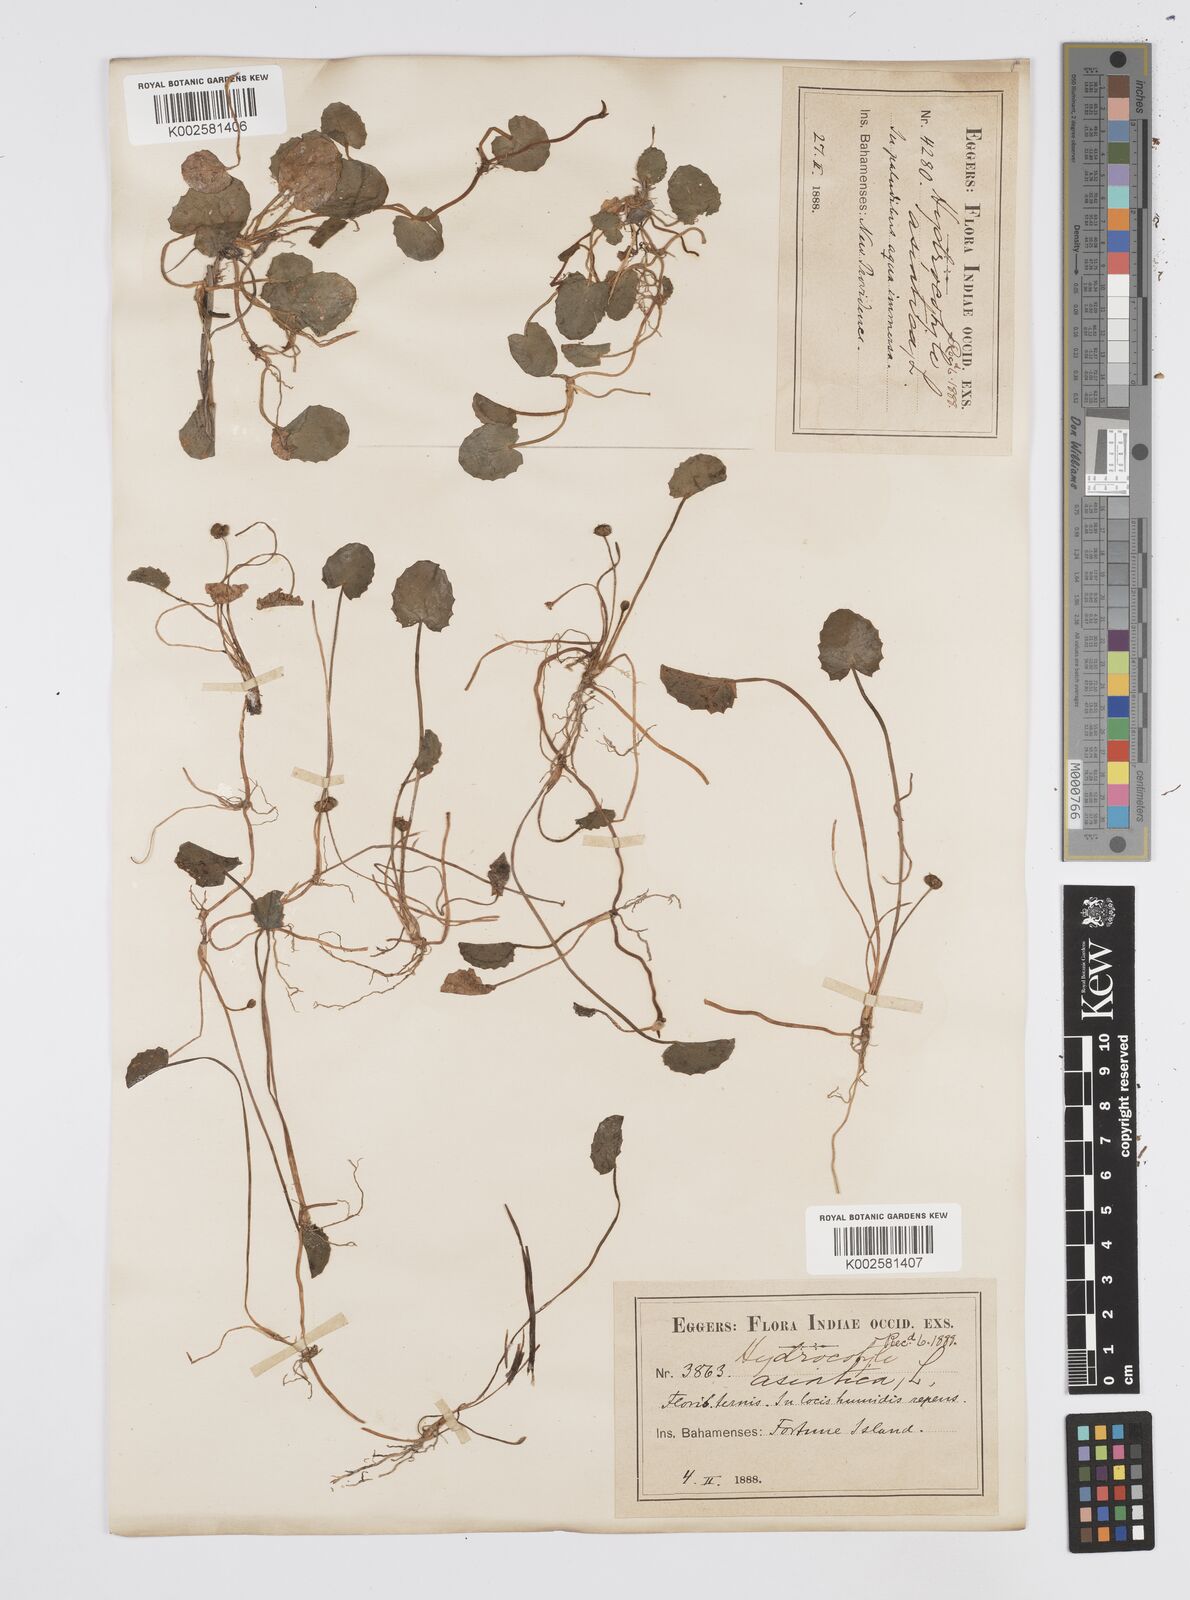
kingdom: Plantae
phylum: Tracheophyta
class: Magnoliopsida
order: Apiales
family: Apiaceae
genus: Centella
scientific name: Centella asiatica
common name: Spadeleaf
